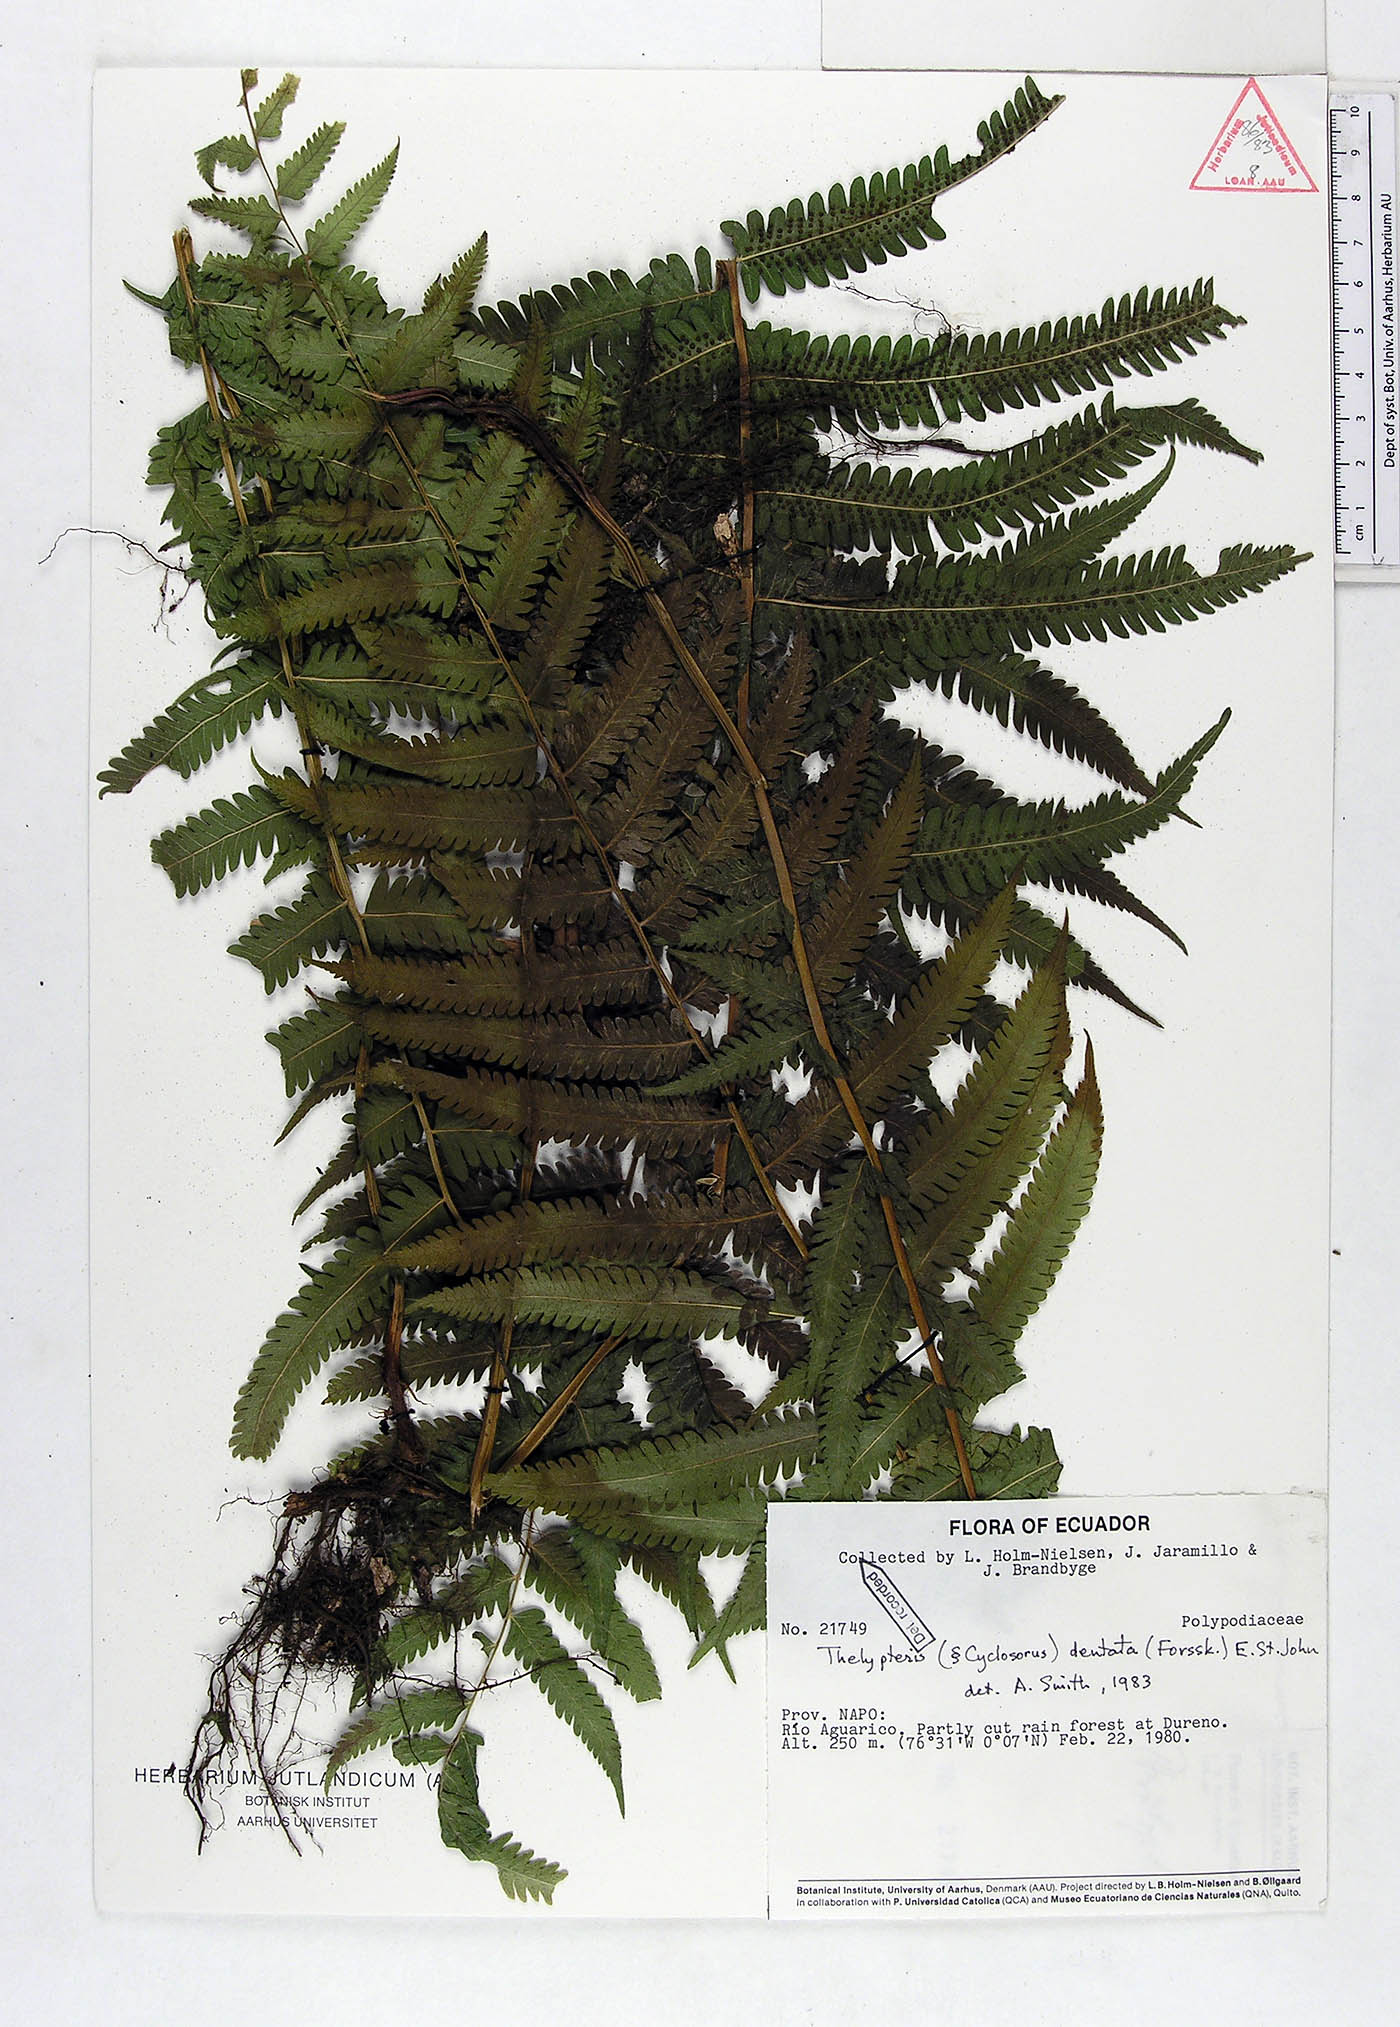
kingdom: Plantae
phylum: Tracheophyta
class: Polypodiopsida
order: Polypodiales
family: Thelypteridaceae
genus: Christella
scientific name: Christella dentata
